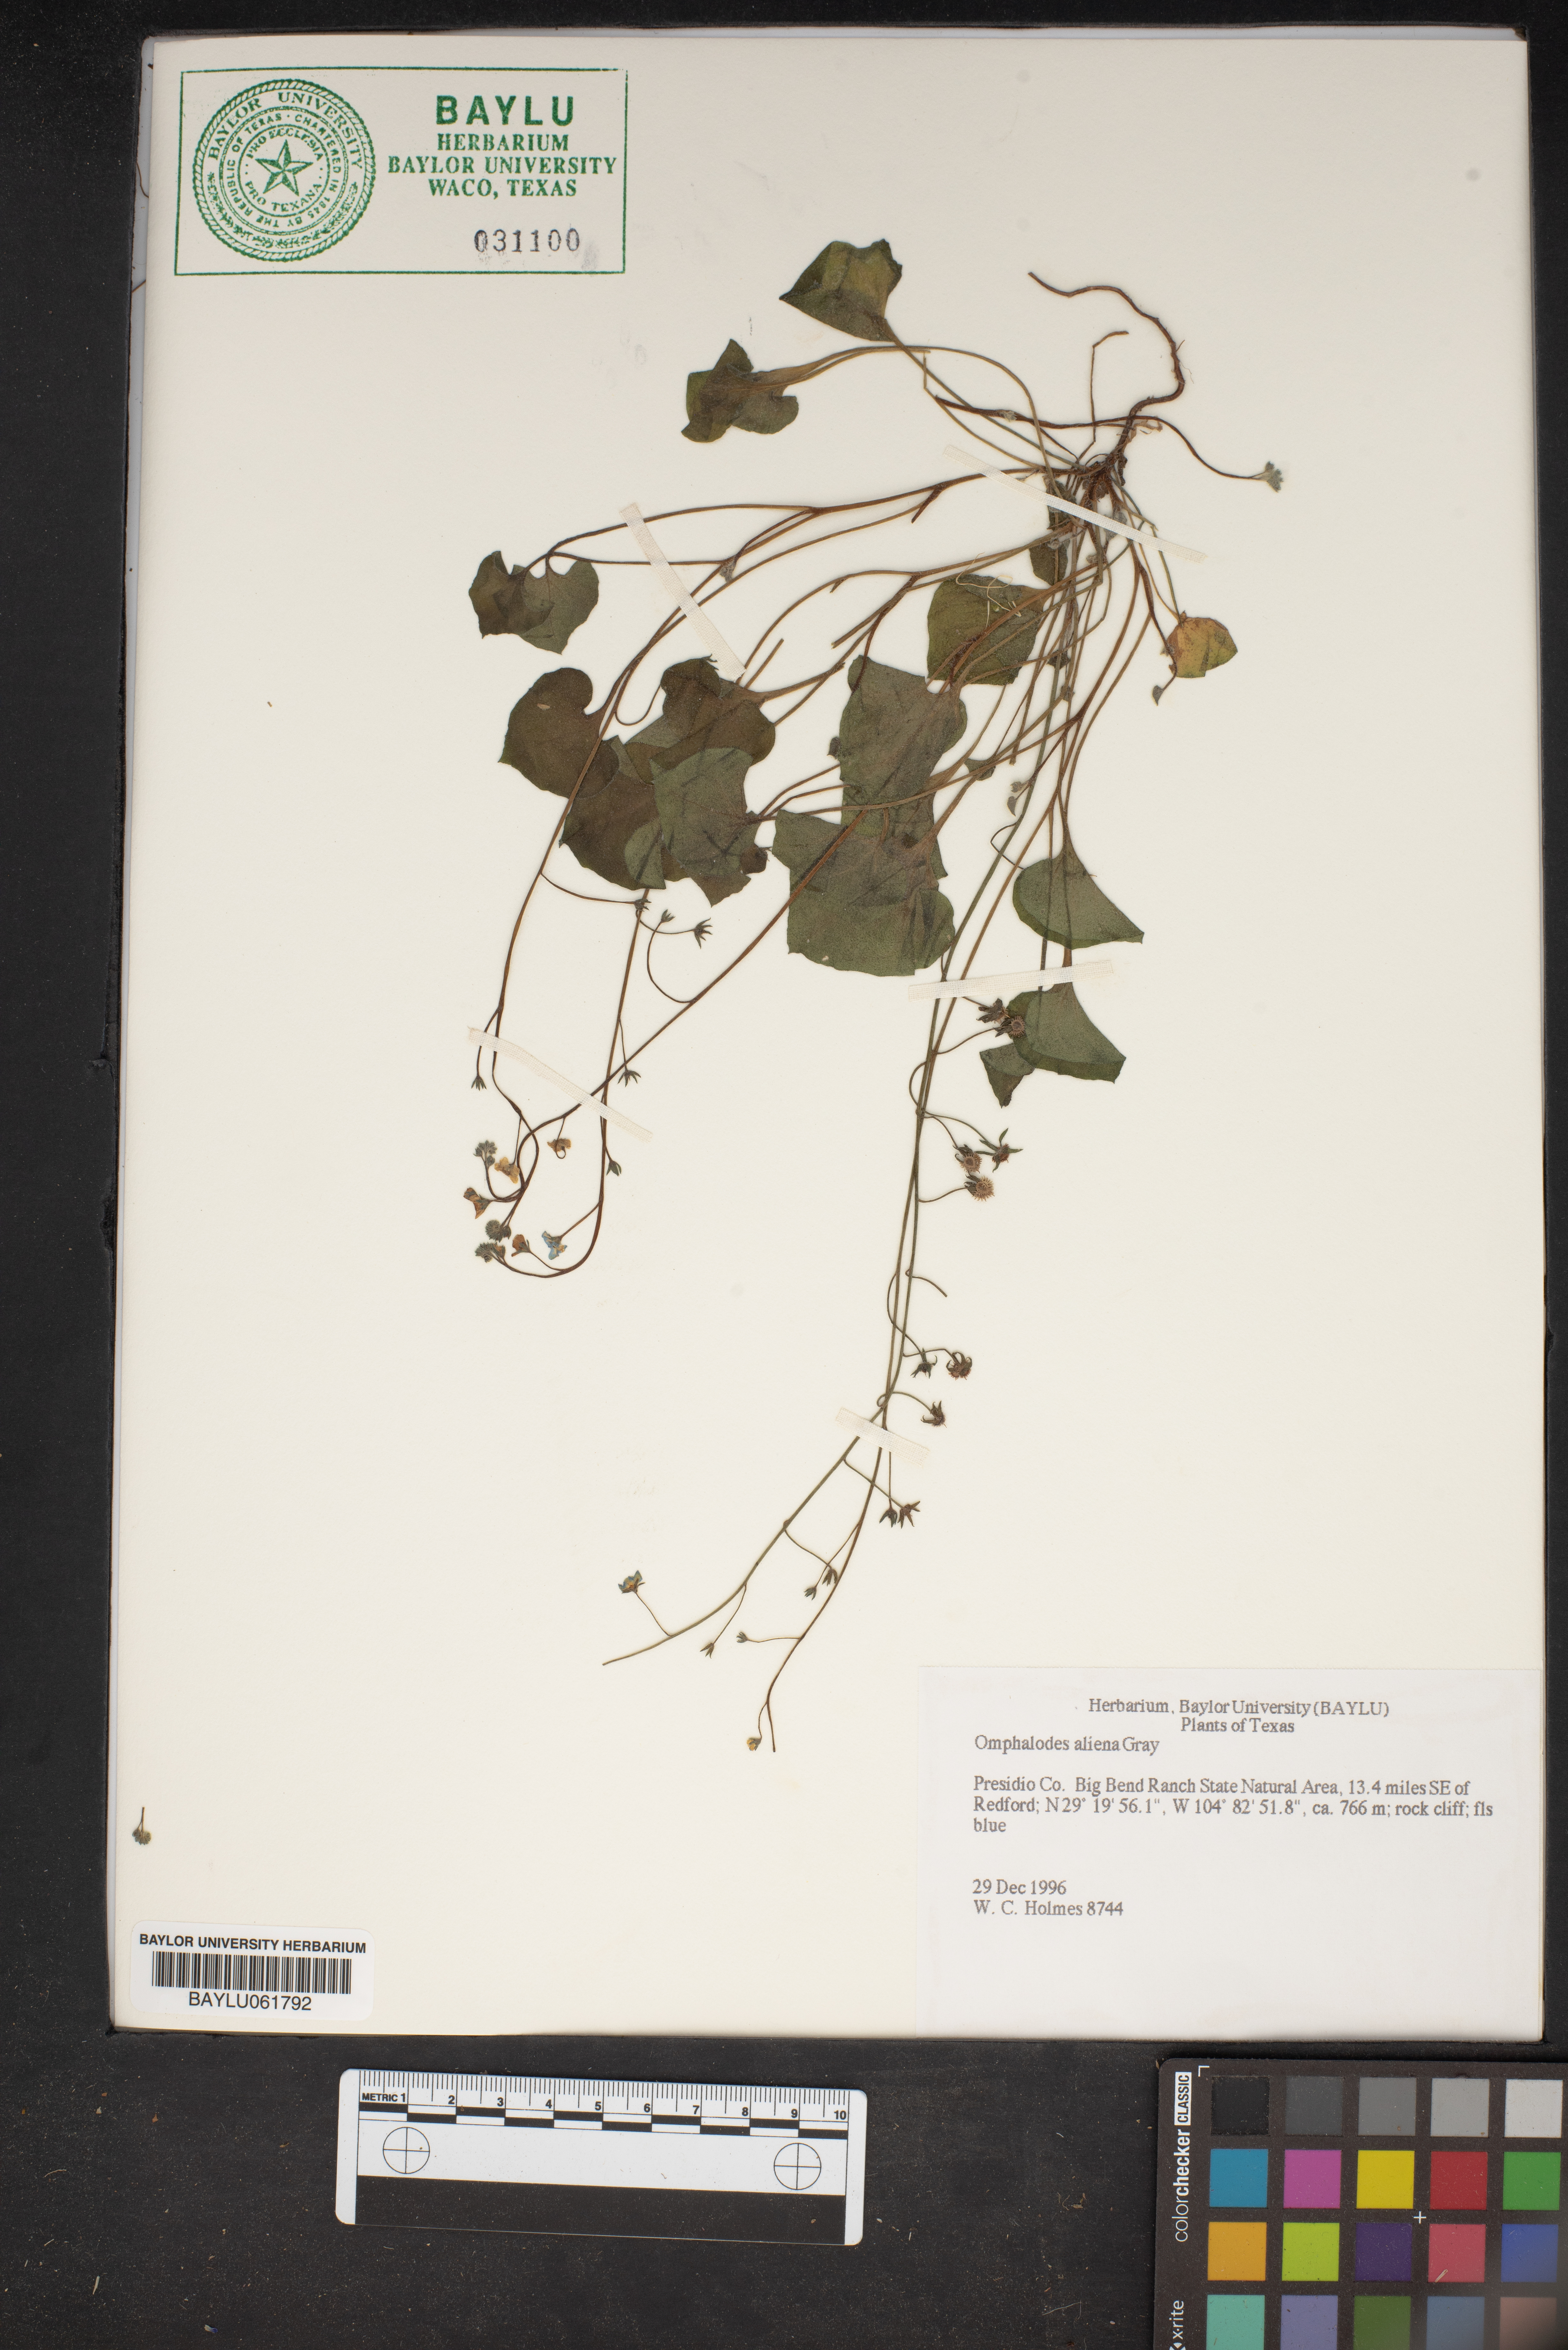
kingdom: Plantae
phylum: Tracheophyta
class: Magnoliopsida
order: Boraginales
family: Boraginaceae
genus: Omphalodes
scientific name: Omphalodes aliena
